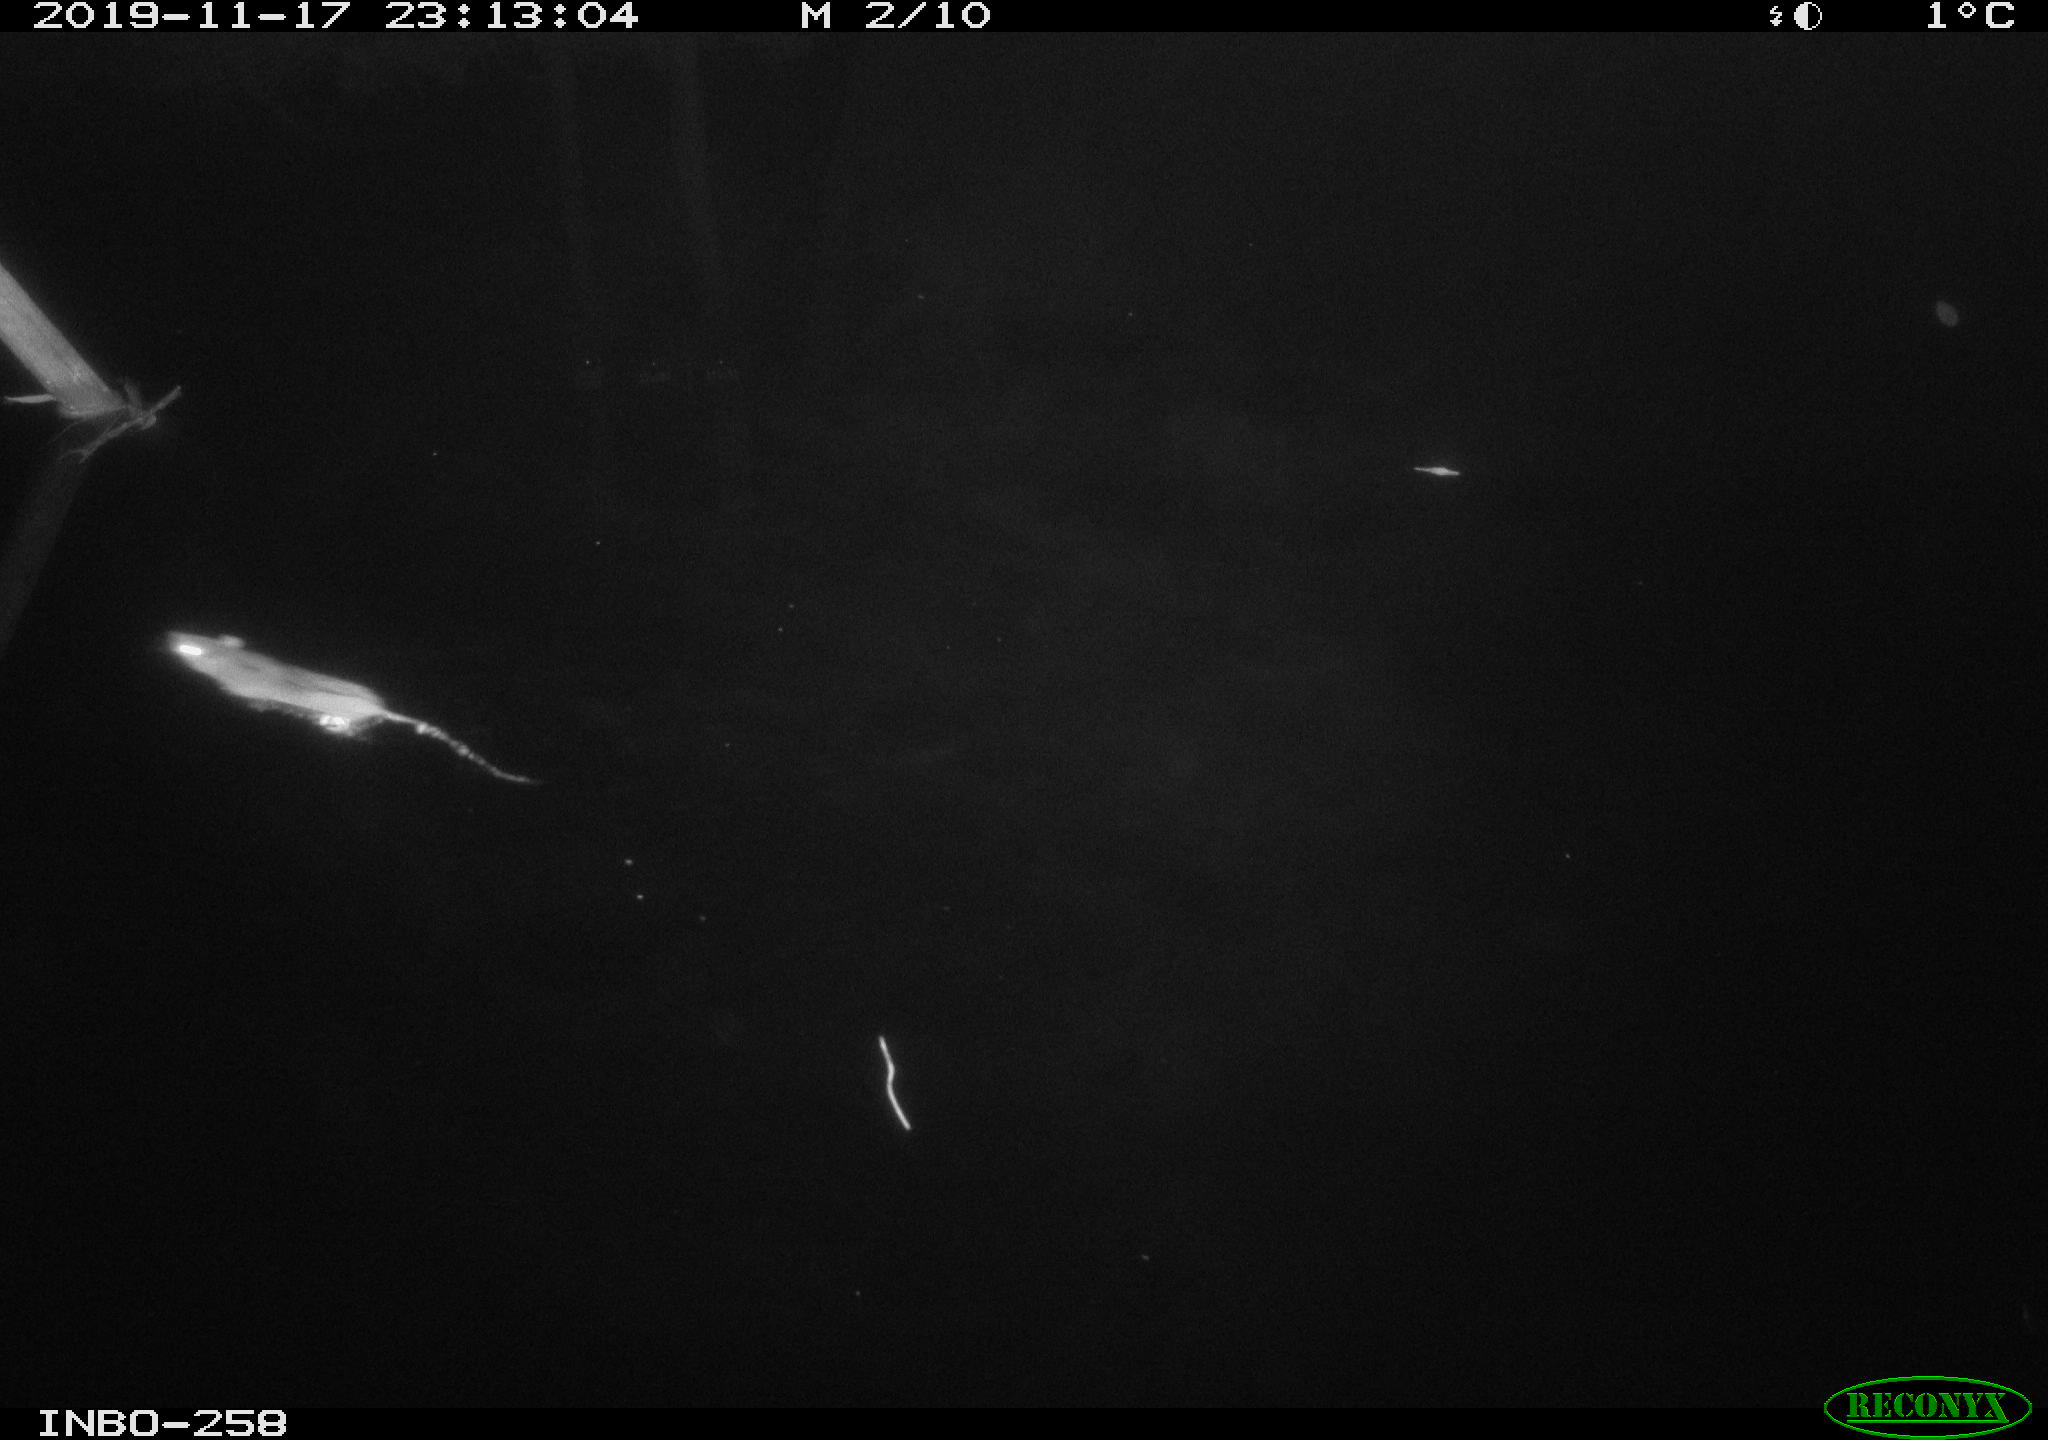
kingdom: Animalia
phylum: Chordata
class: Mammalia
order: Rodentia
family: Muridae
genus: Rattus
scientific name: Rattus norvegicus
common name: Brown rat
